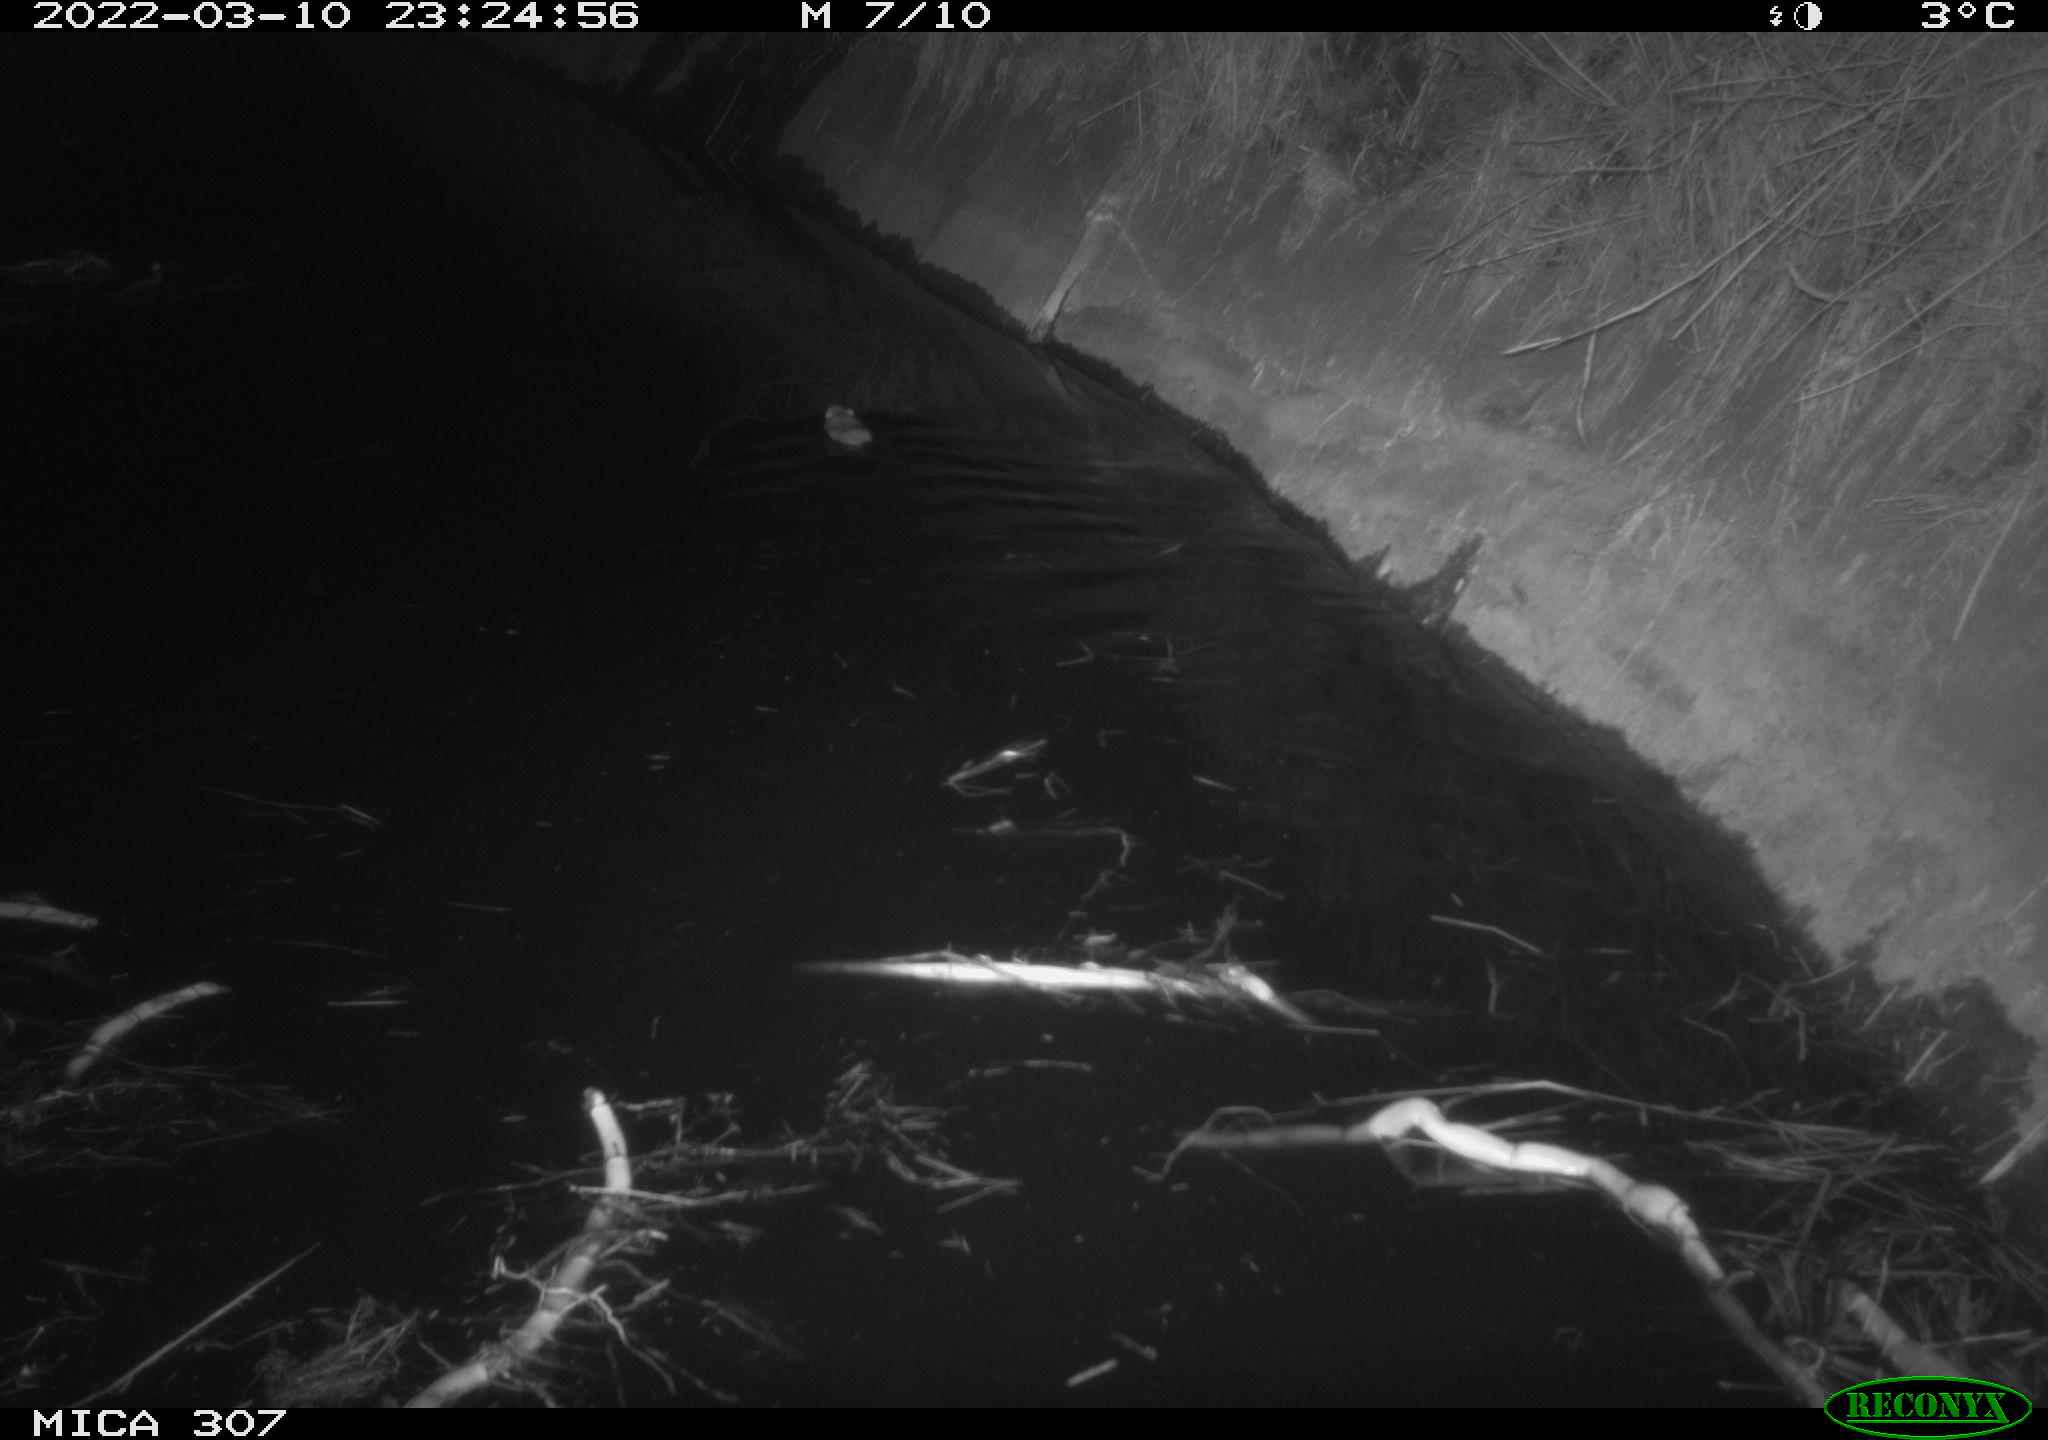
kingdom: Animalia
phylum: Chordata
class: Mammalia
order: Rodentia
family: Muridae
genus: Rattus
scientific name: Rattus norvegicus
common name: Brown rat
